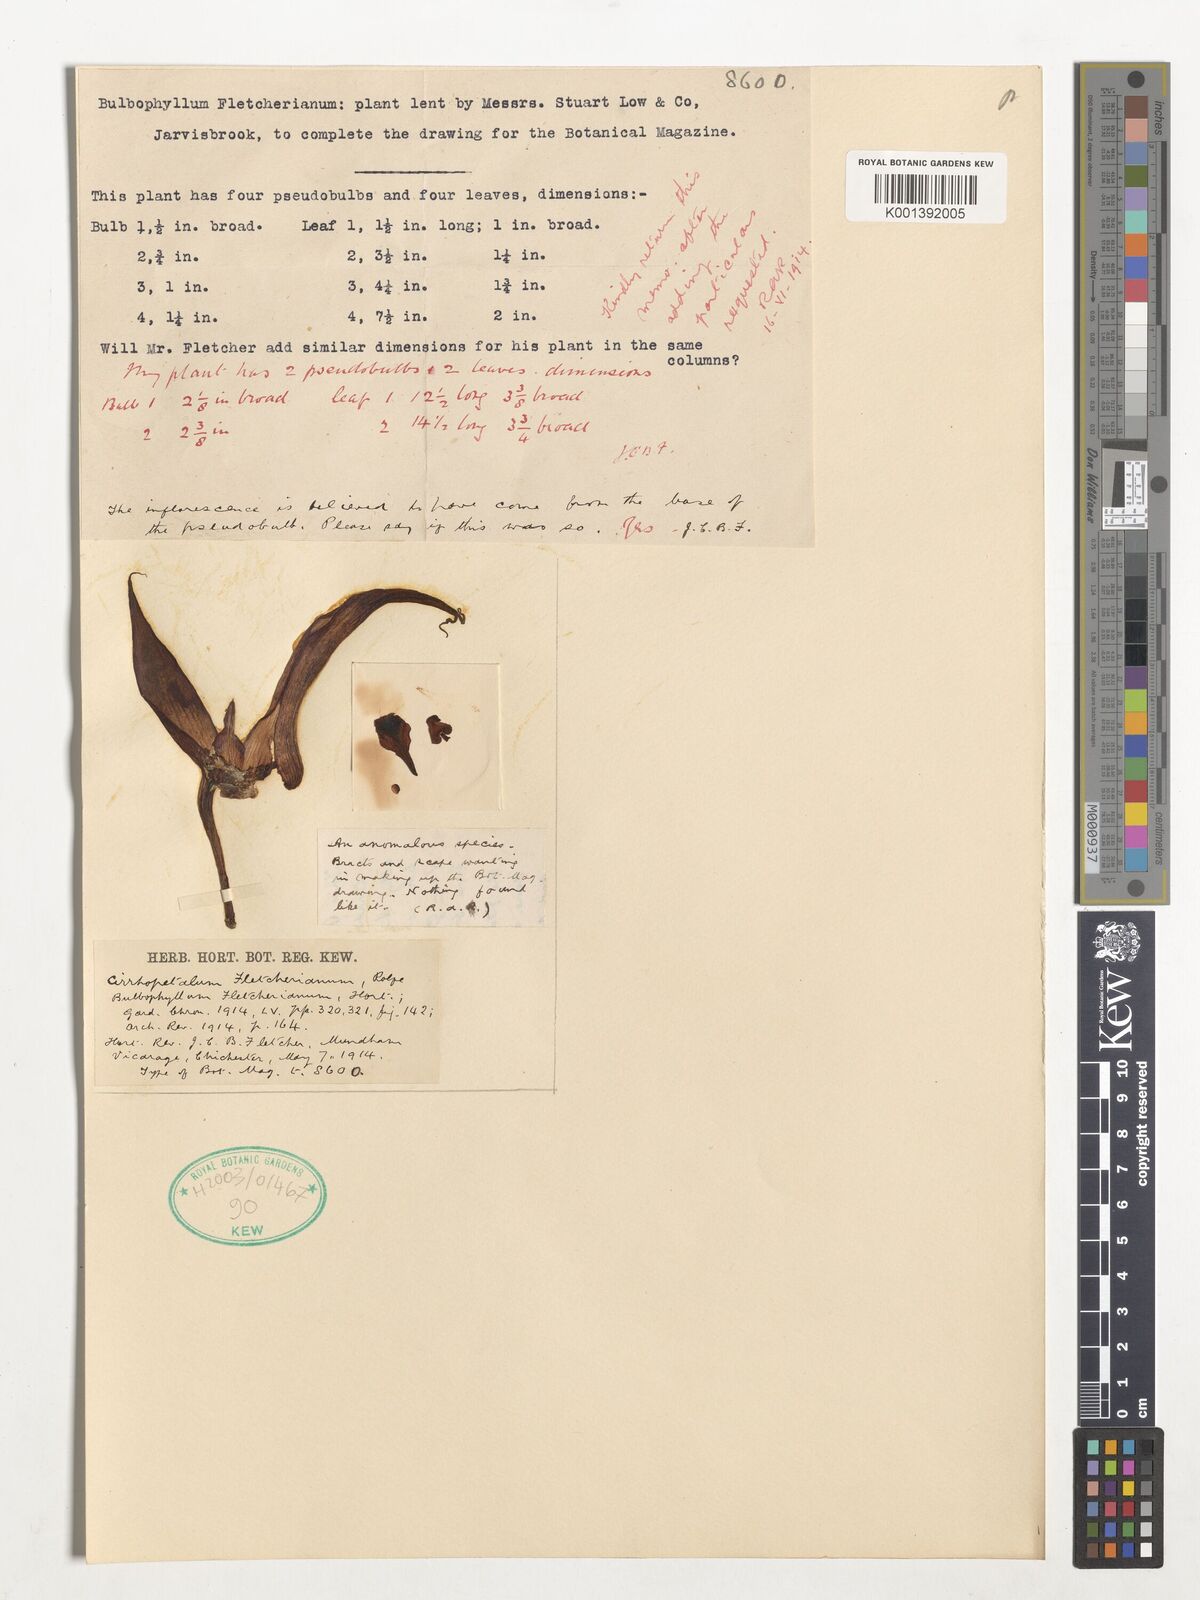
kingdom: Plantae
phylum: Tracheophyta
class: Liliopsida
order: Asparagales
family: Orchidaceae
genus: Bulbophyllum
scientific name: Bulbophyllum fletcherianum
